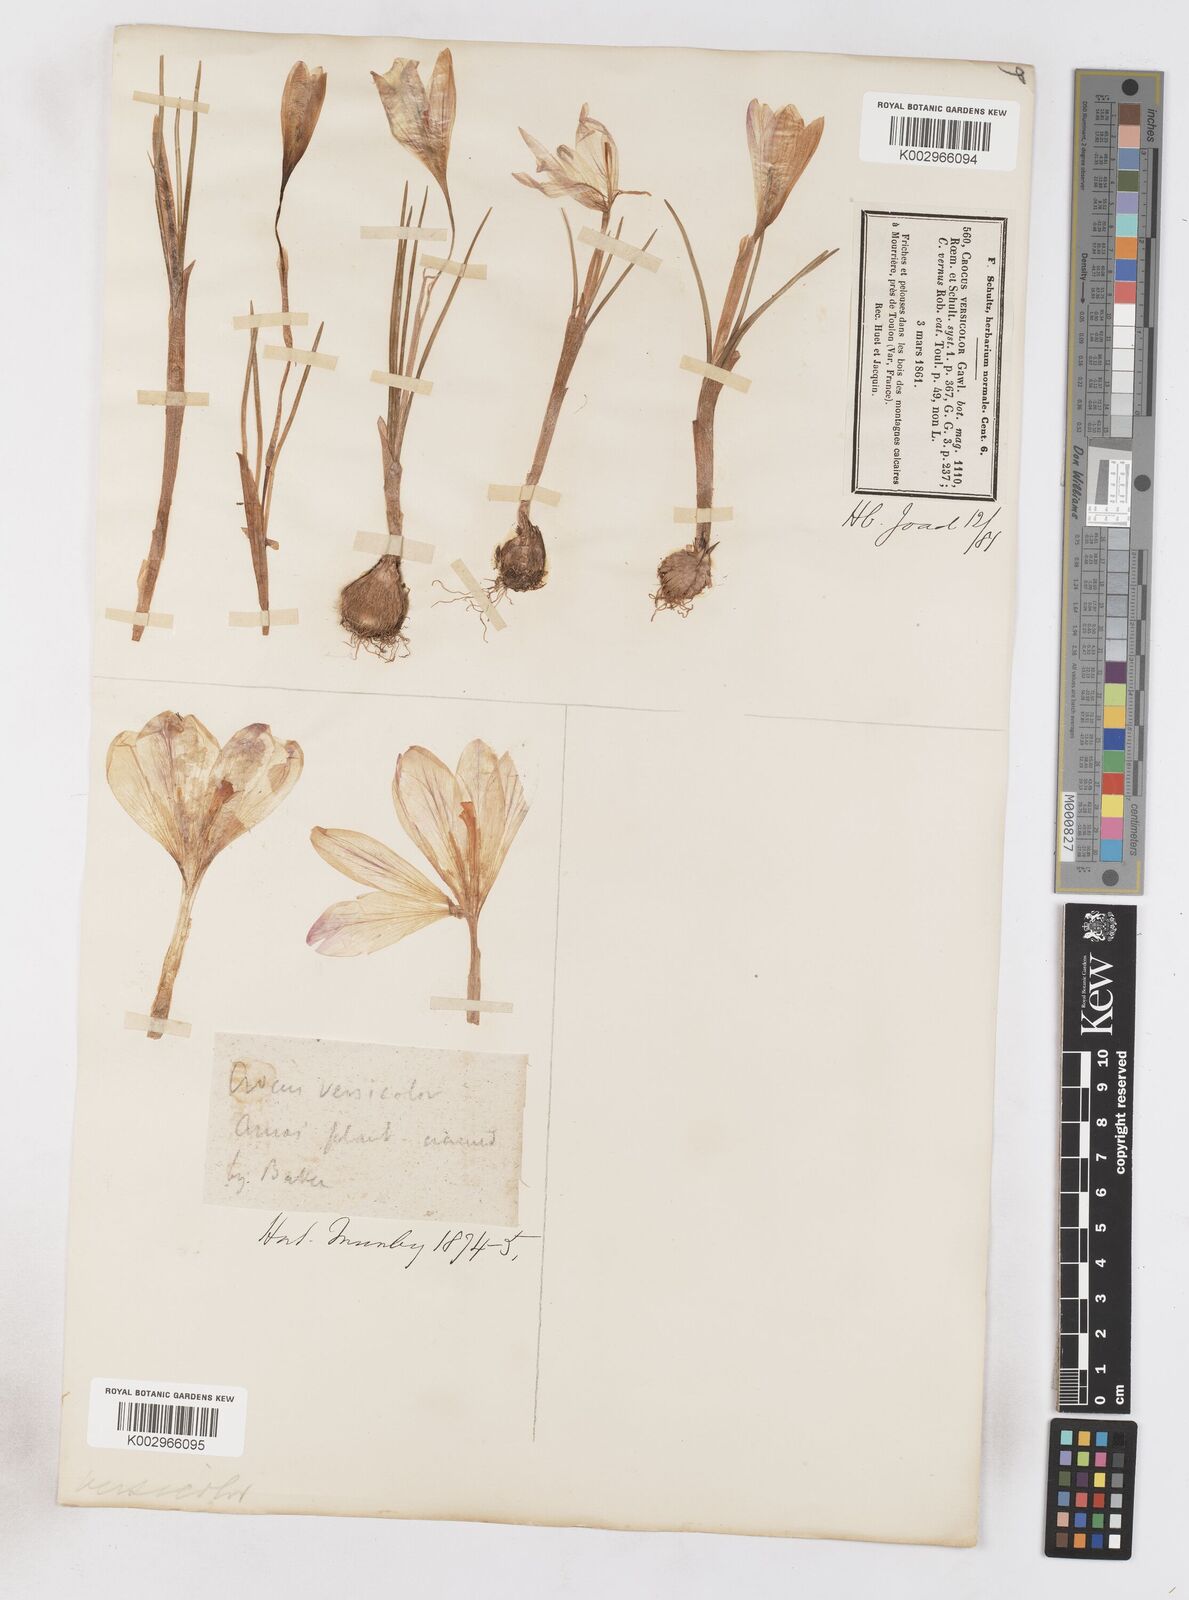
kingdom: Plantae
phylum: Tracheophyta
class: Liliopsida
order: Asparagales
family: Iridaceae
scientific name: Iridaceae
